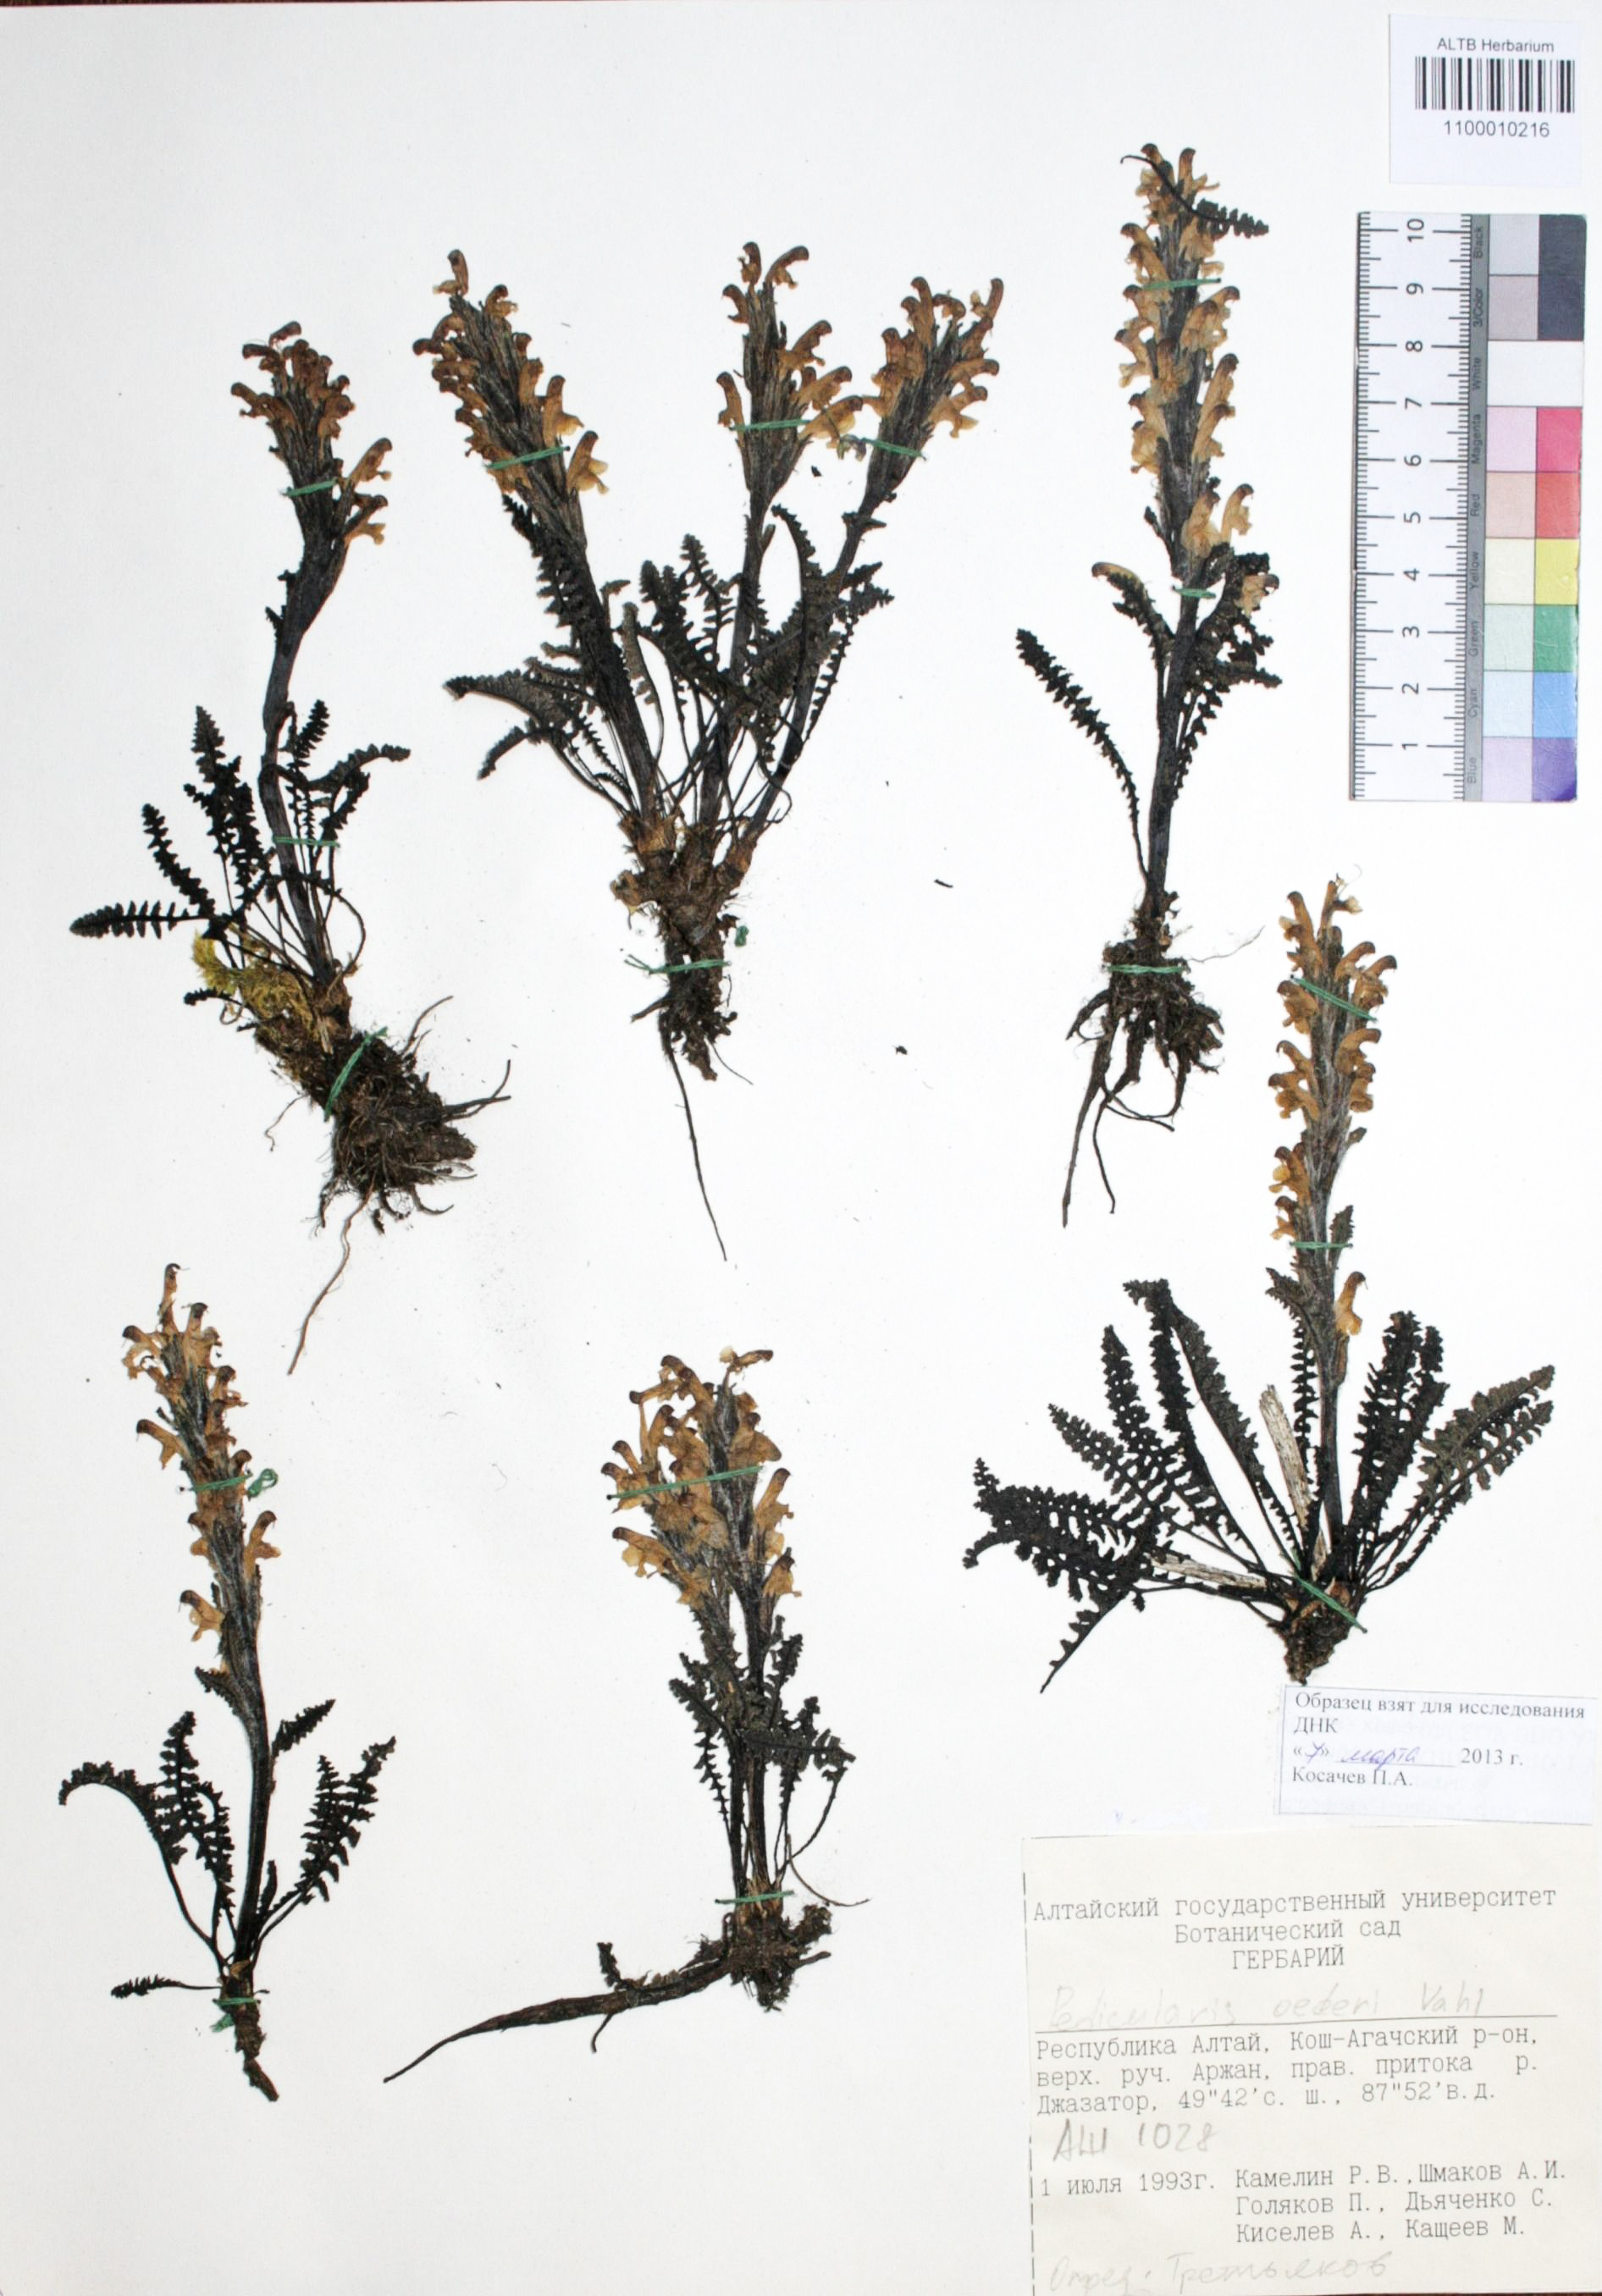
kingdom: Plantae
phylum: Tracheophyta
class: Magnoliopsida
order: Caryophyllales
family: Caryophyllaceae
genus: Silene
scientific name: Silene graminifolia
